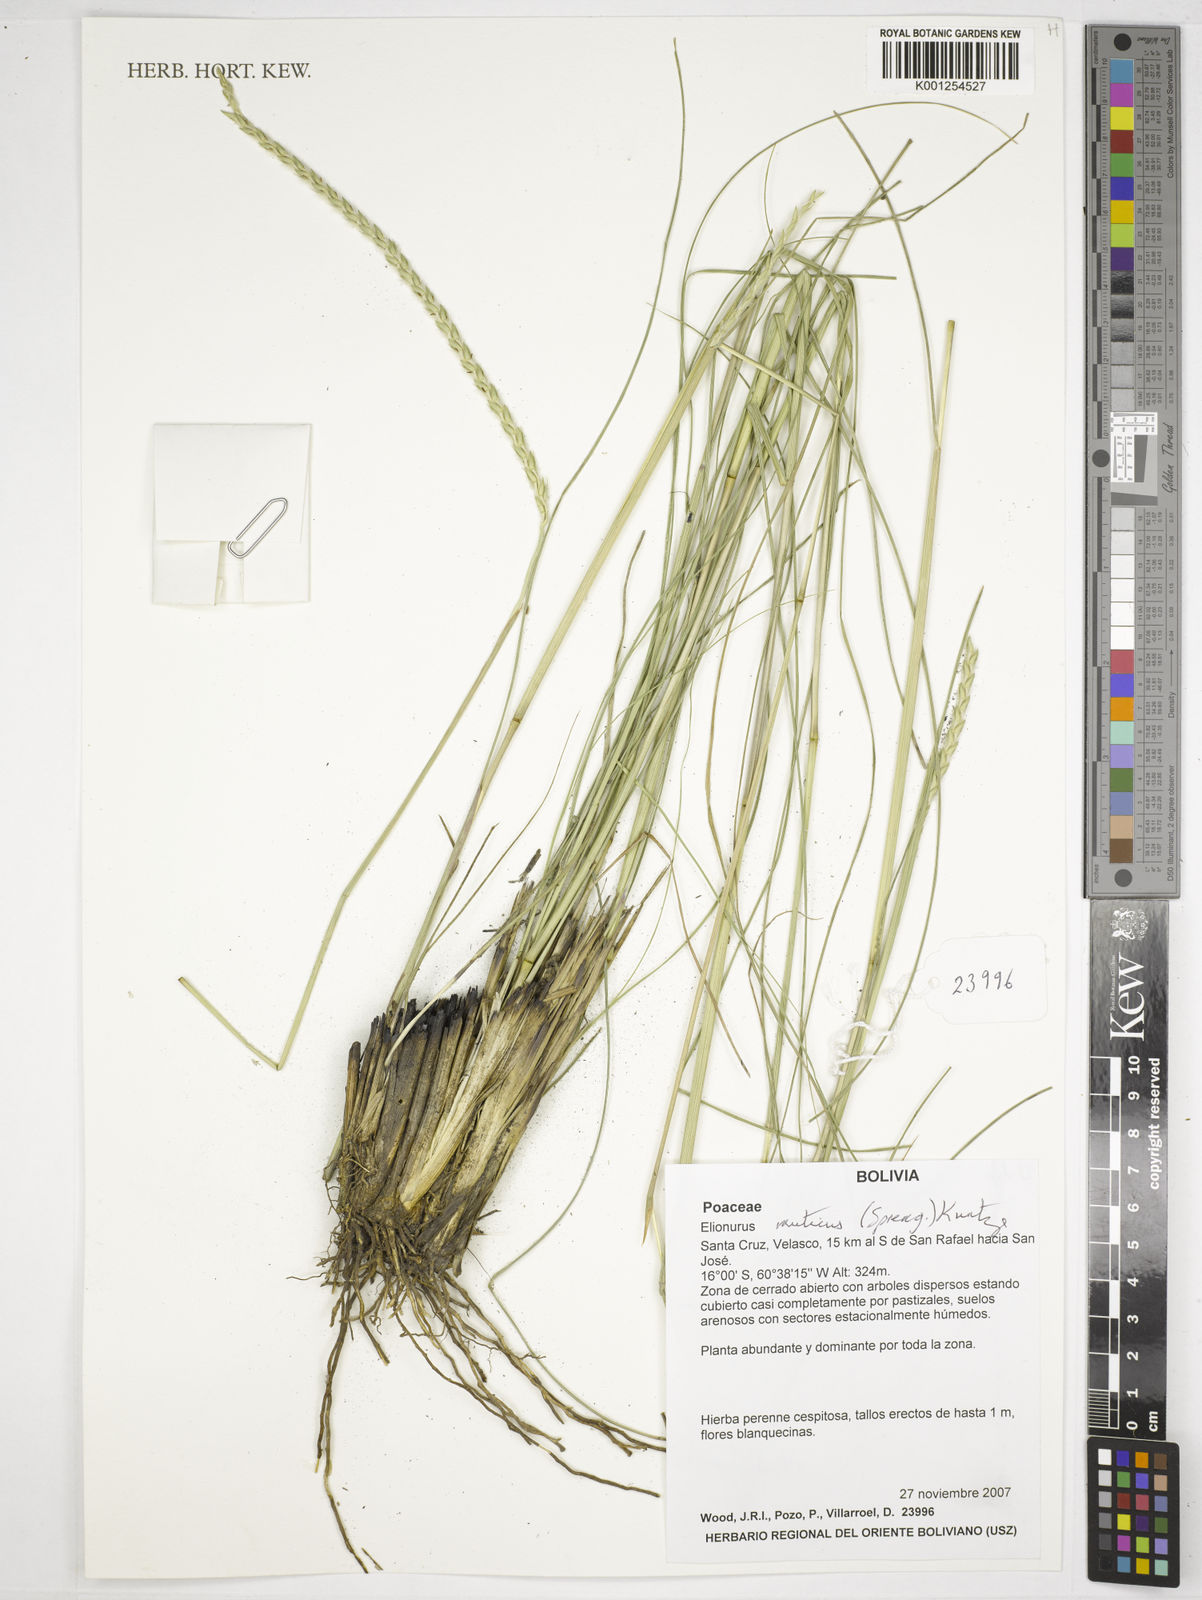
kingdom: Plantae
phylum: Tracheophyta
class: Liliopsida
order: Poales
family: Poaceae
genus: Elionurus
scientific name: Elionurus muticus
